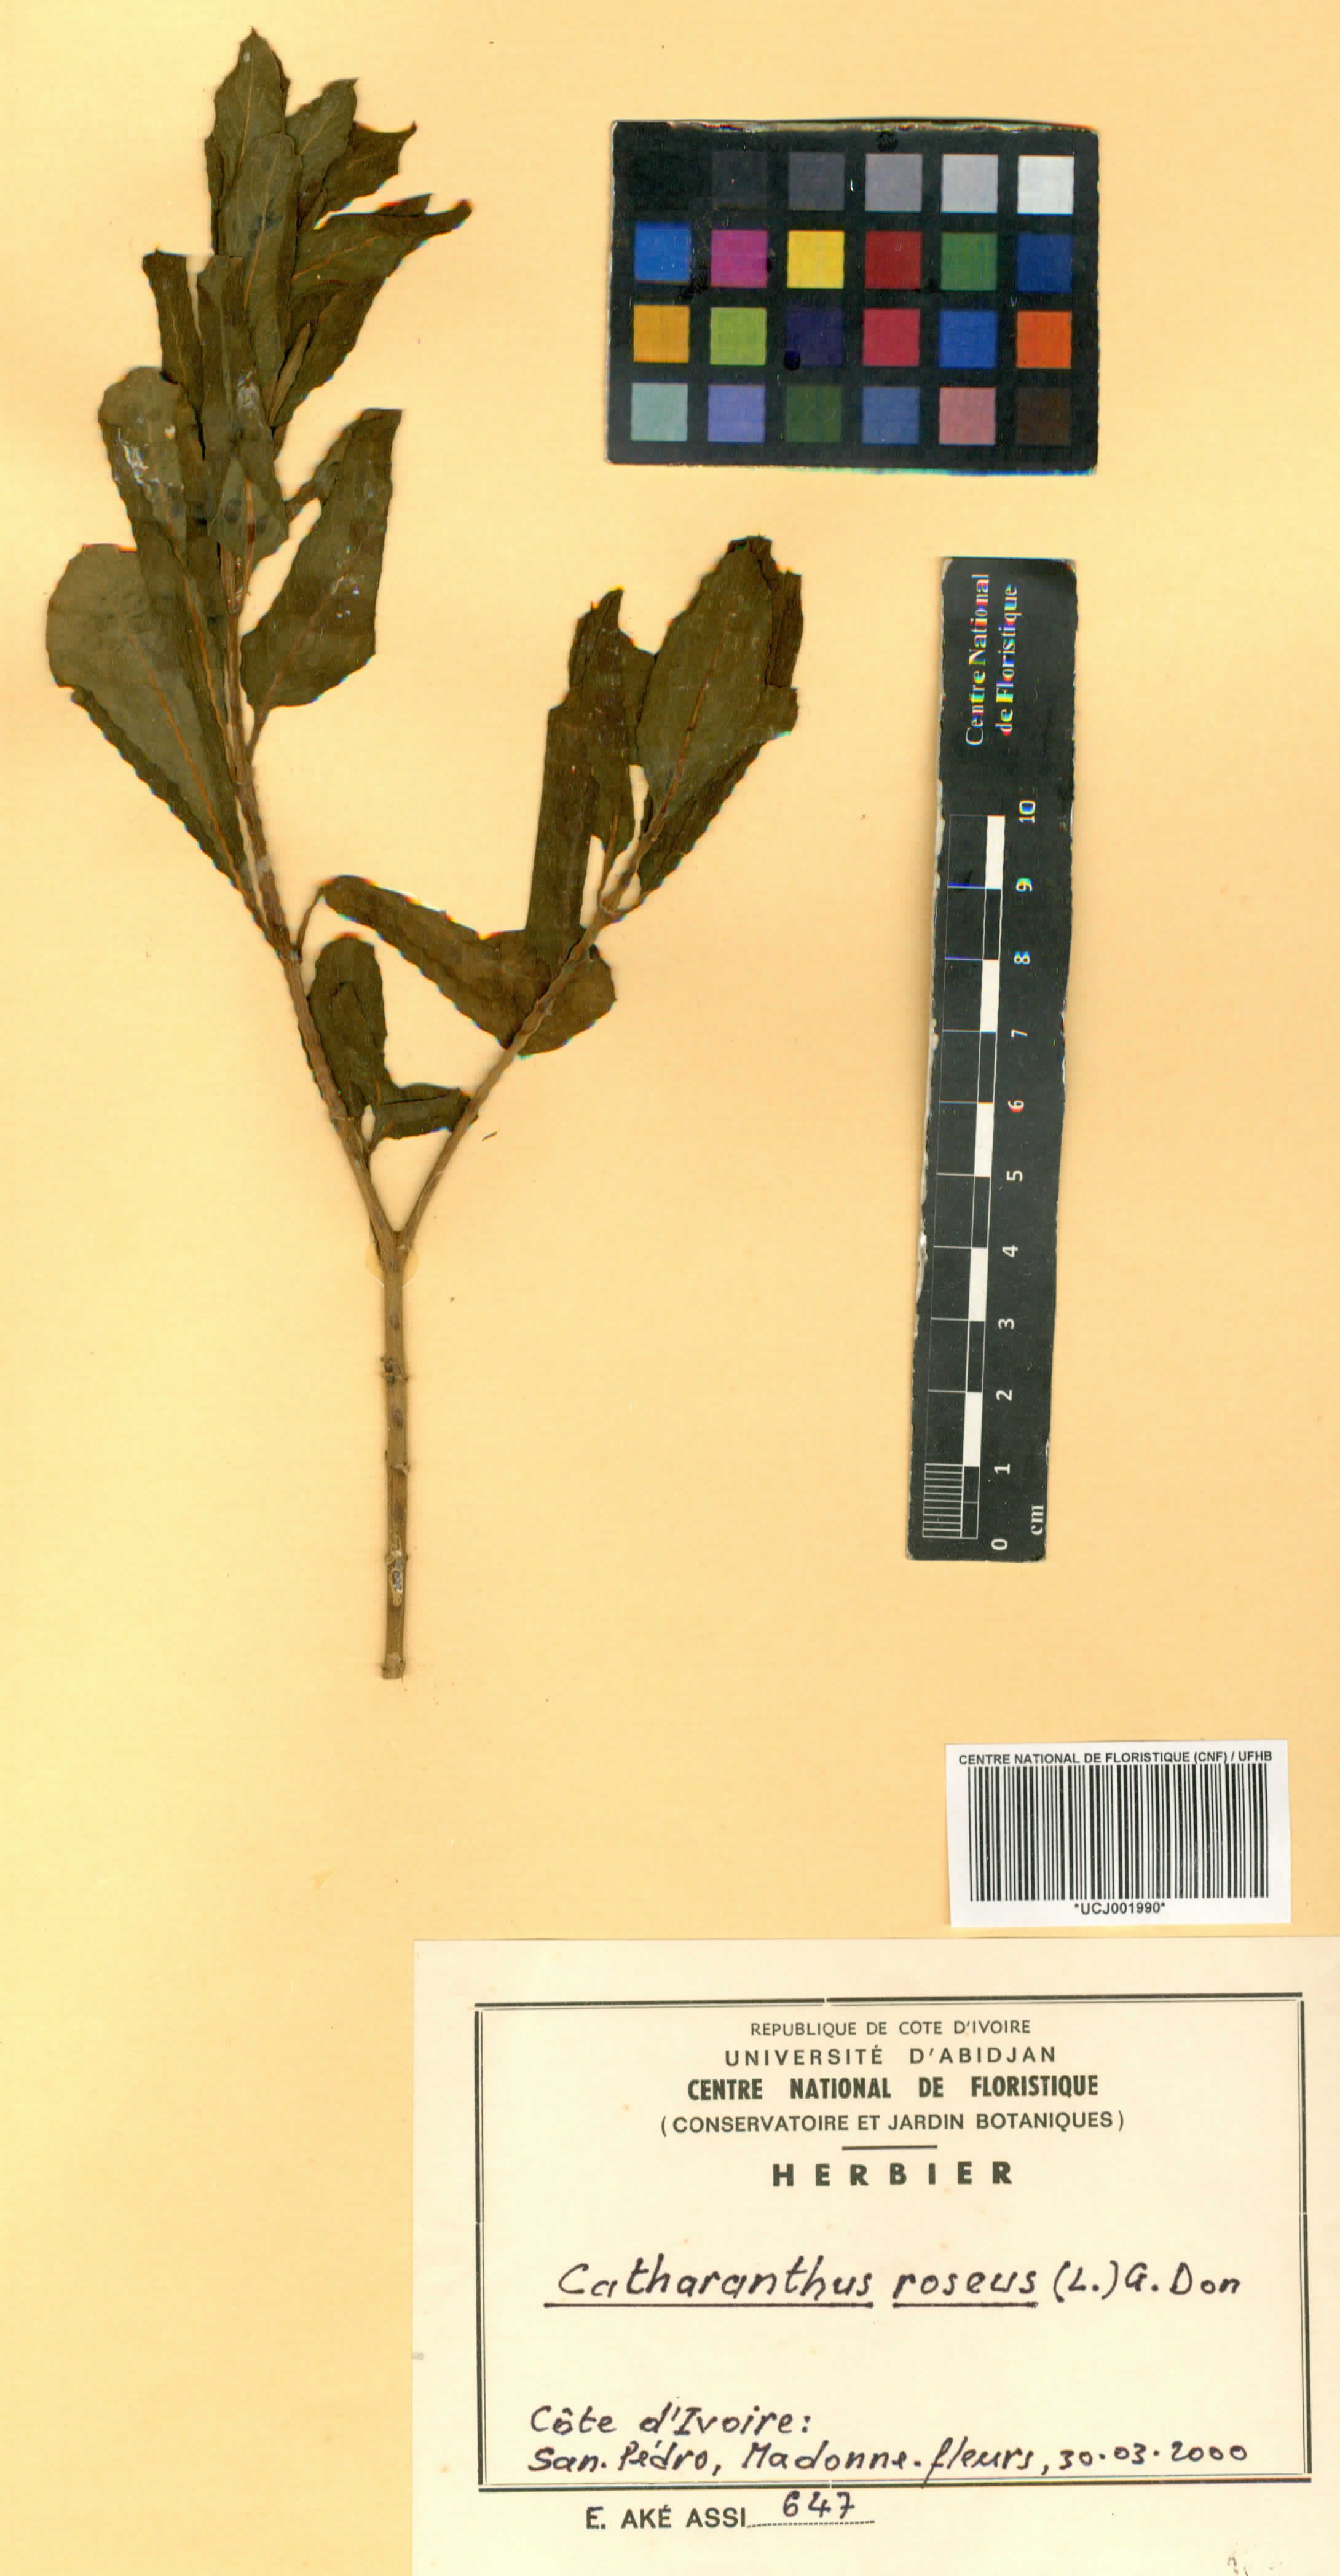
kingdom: Plantae
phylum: Tracheophyta
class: Magnoliopsida
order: Gentianales
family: Apocynaceae
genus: Catharanthus
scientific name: Catharanthus roseus
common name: Madagascar periwinkle
